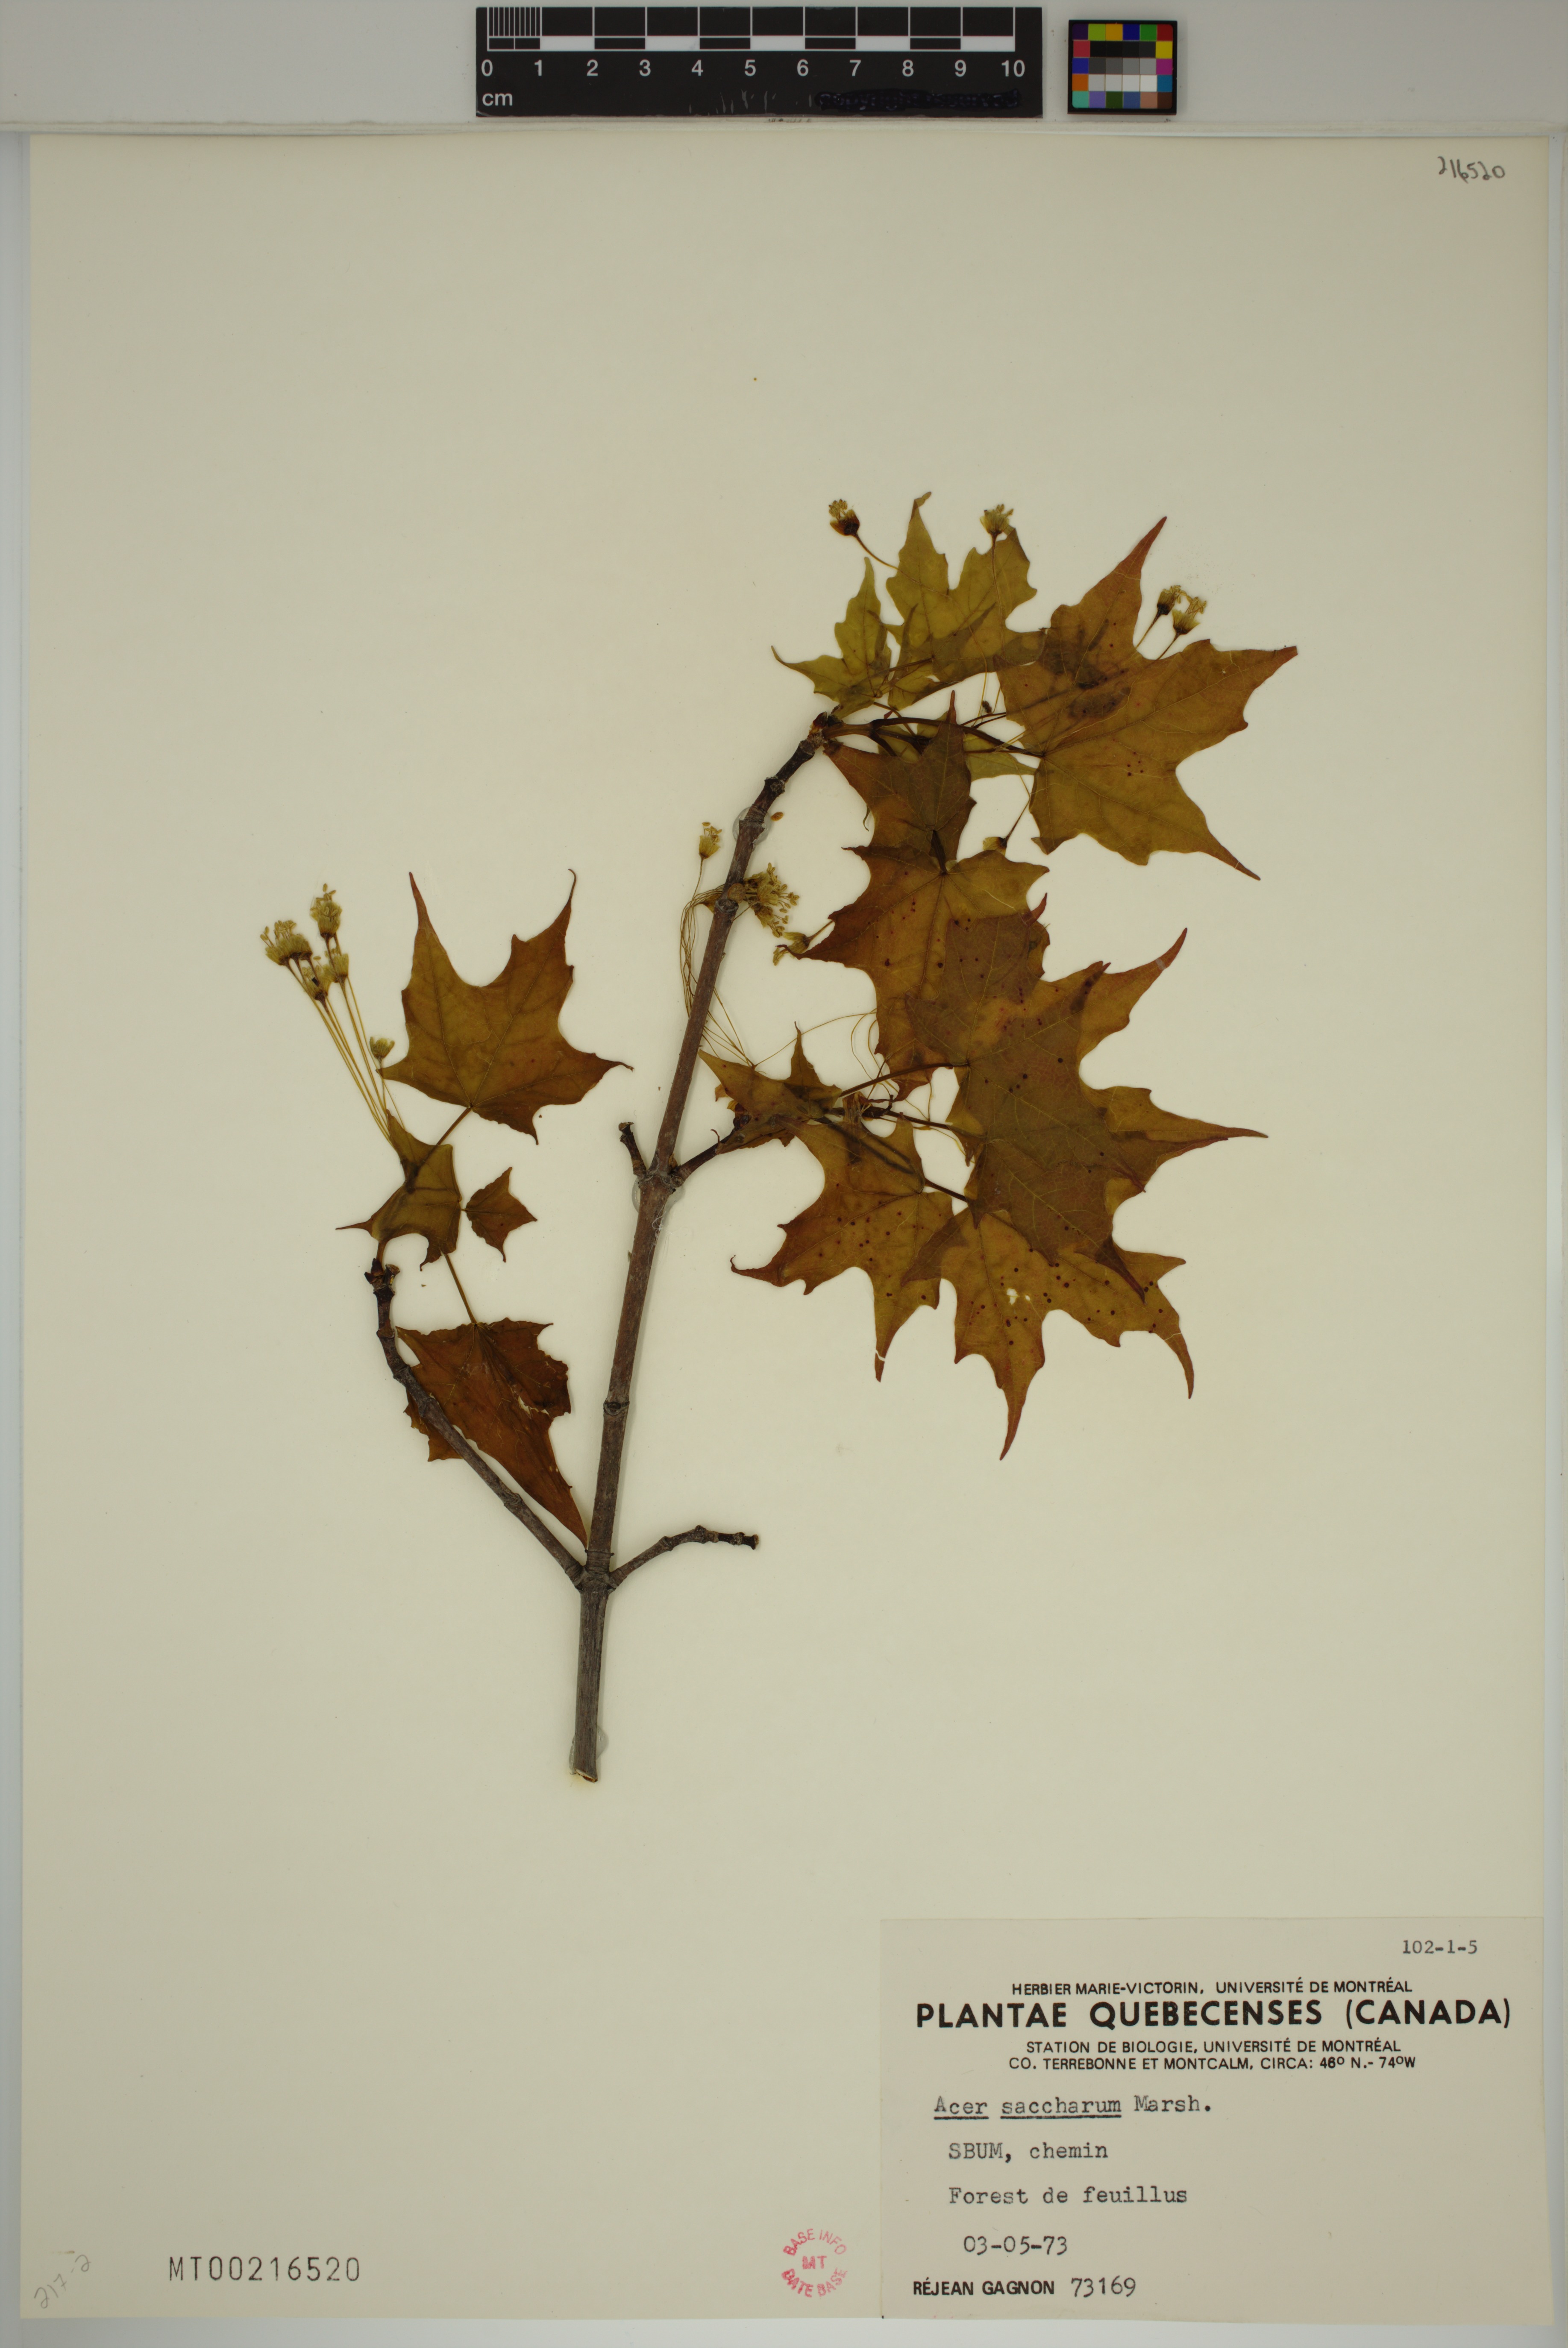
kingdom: Plantae
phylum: Tracheophyta
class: Magnoliopsida
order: Sapindales
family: Sapindaceae
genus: Acer
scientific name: Acer saccharum
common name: Sugar maple
